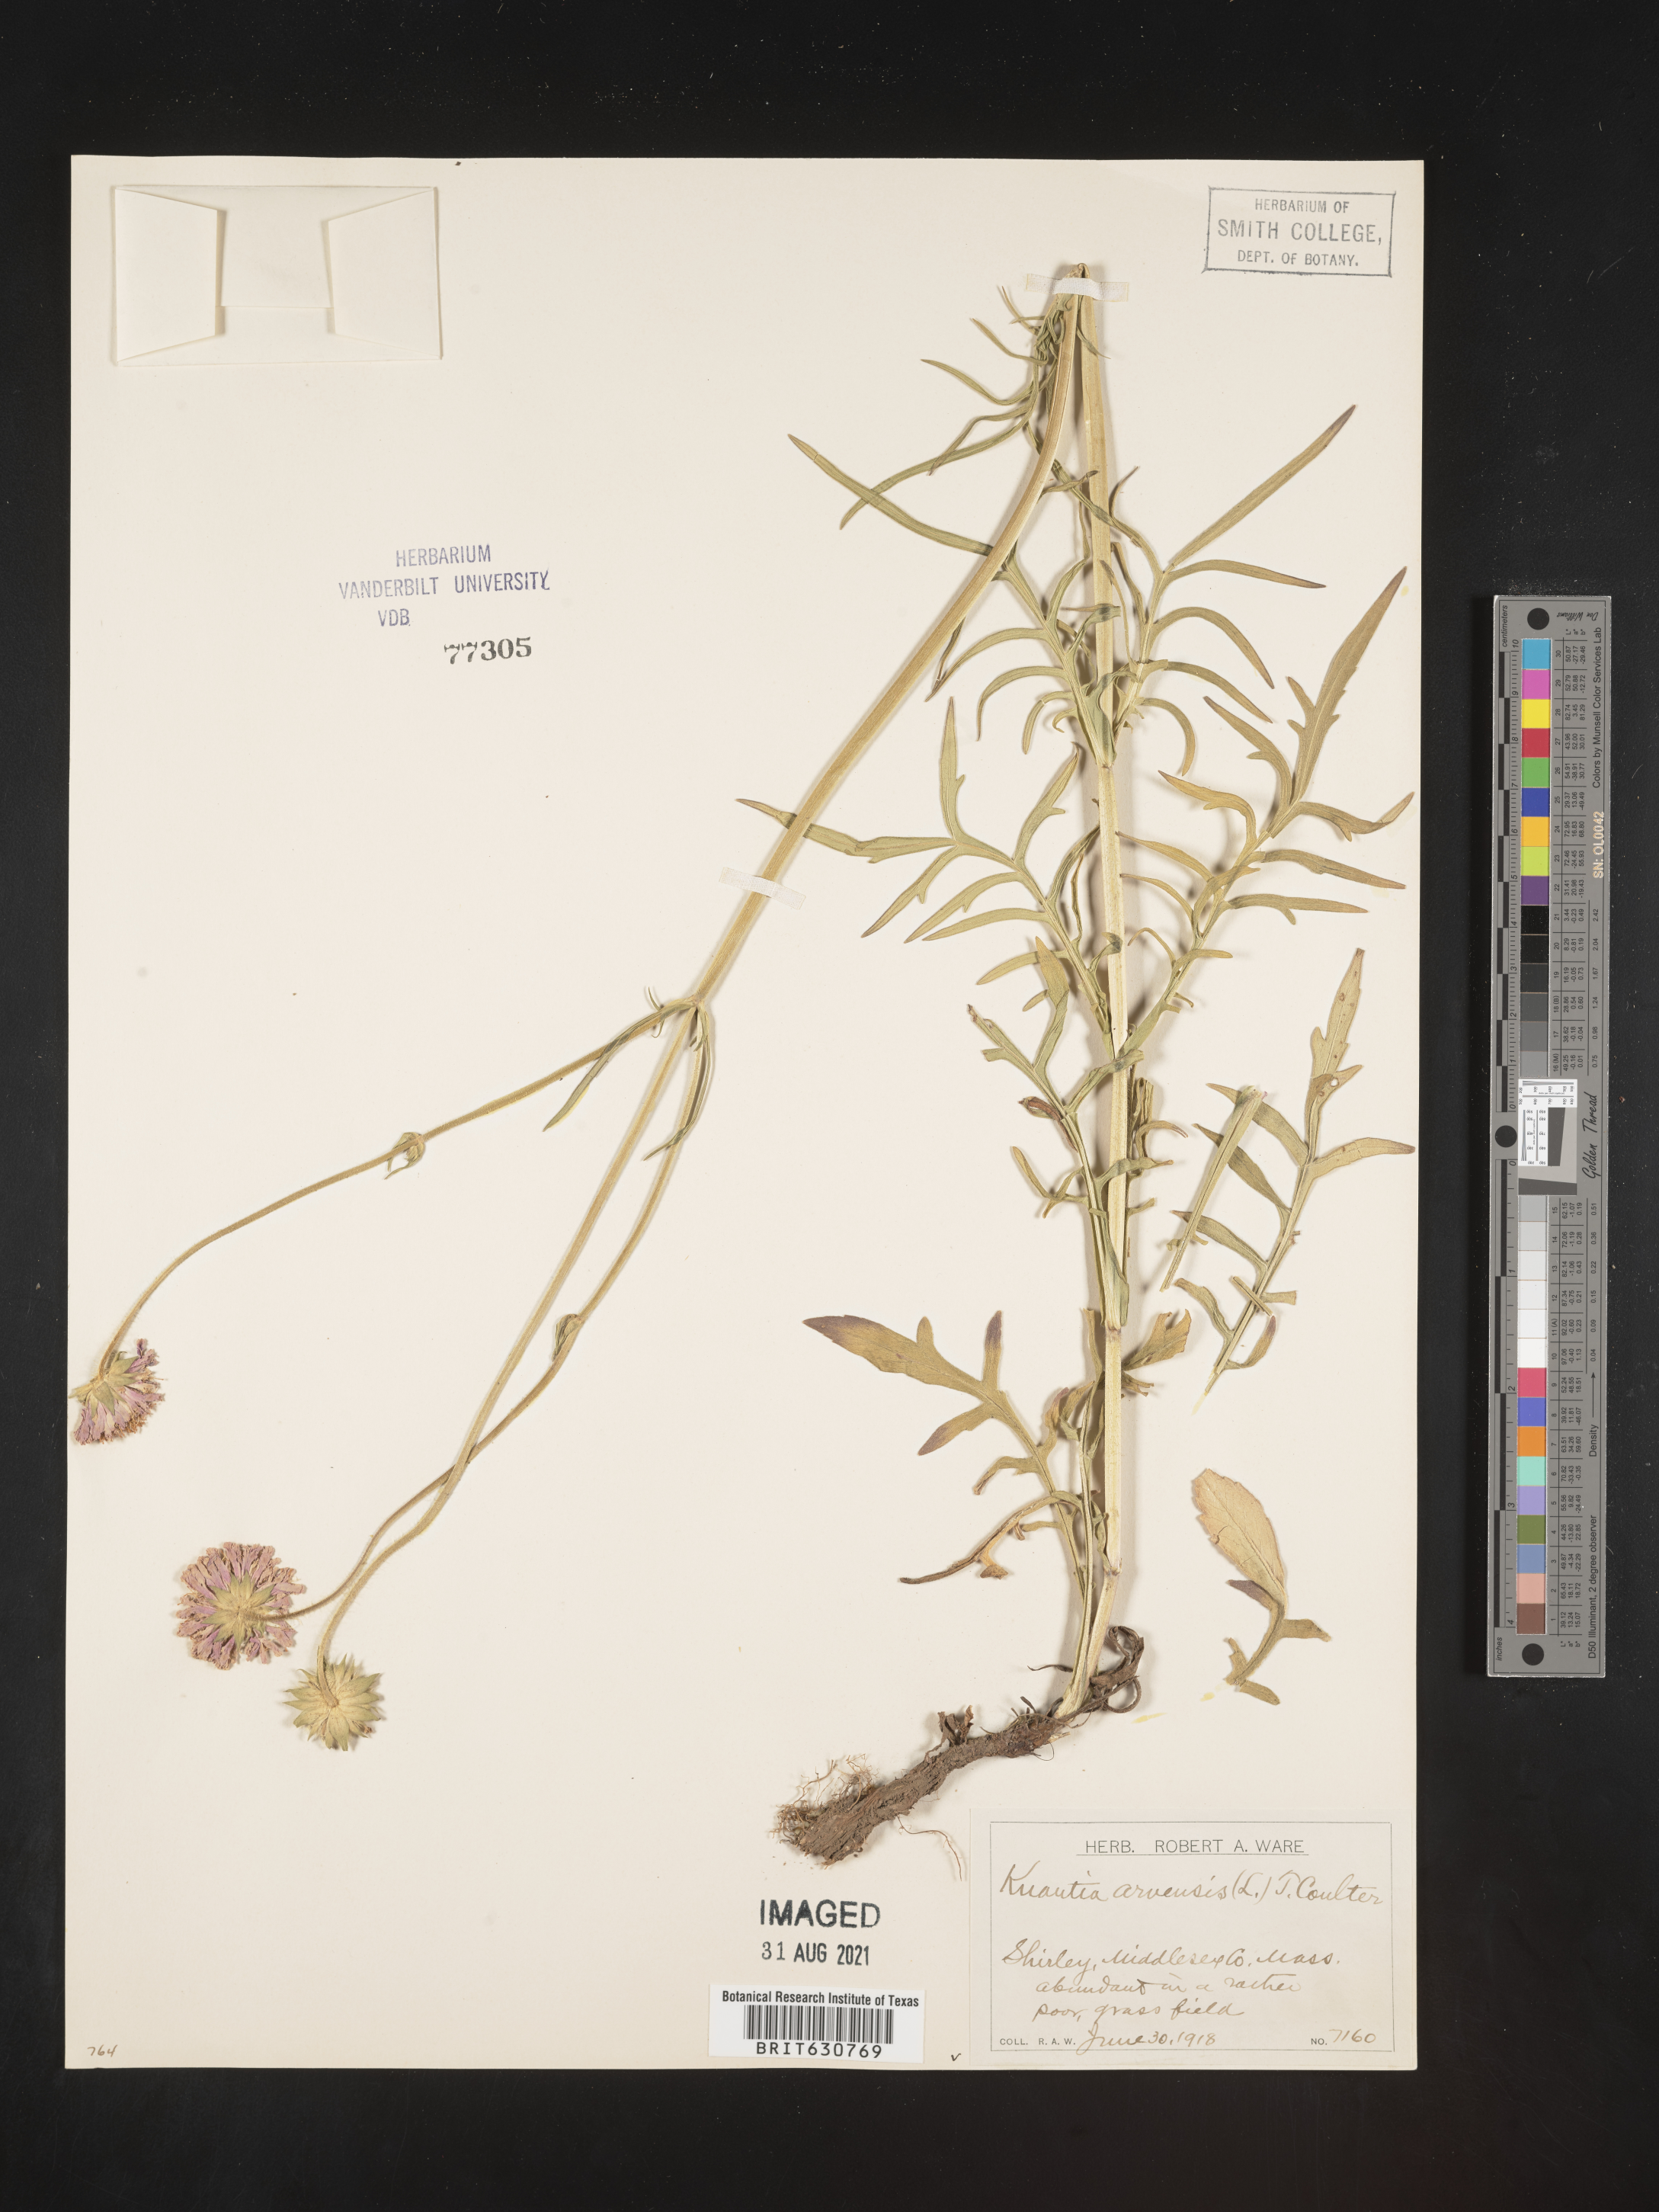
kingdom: Plantae
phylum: Tracheophyta
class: Magnoliopsida
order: Dipsacales
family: Caprifoliaceae
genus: Knautia
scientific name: Knautia arvensis
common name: Field scabiosa
